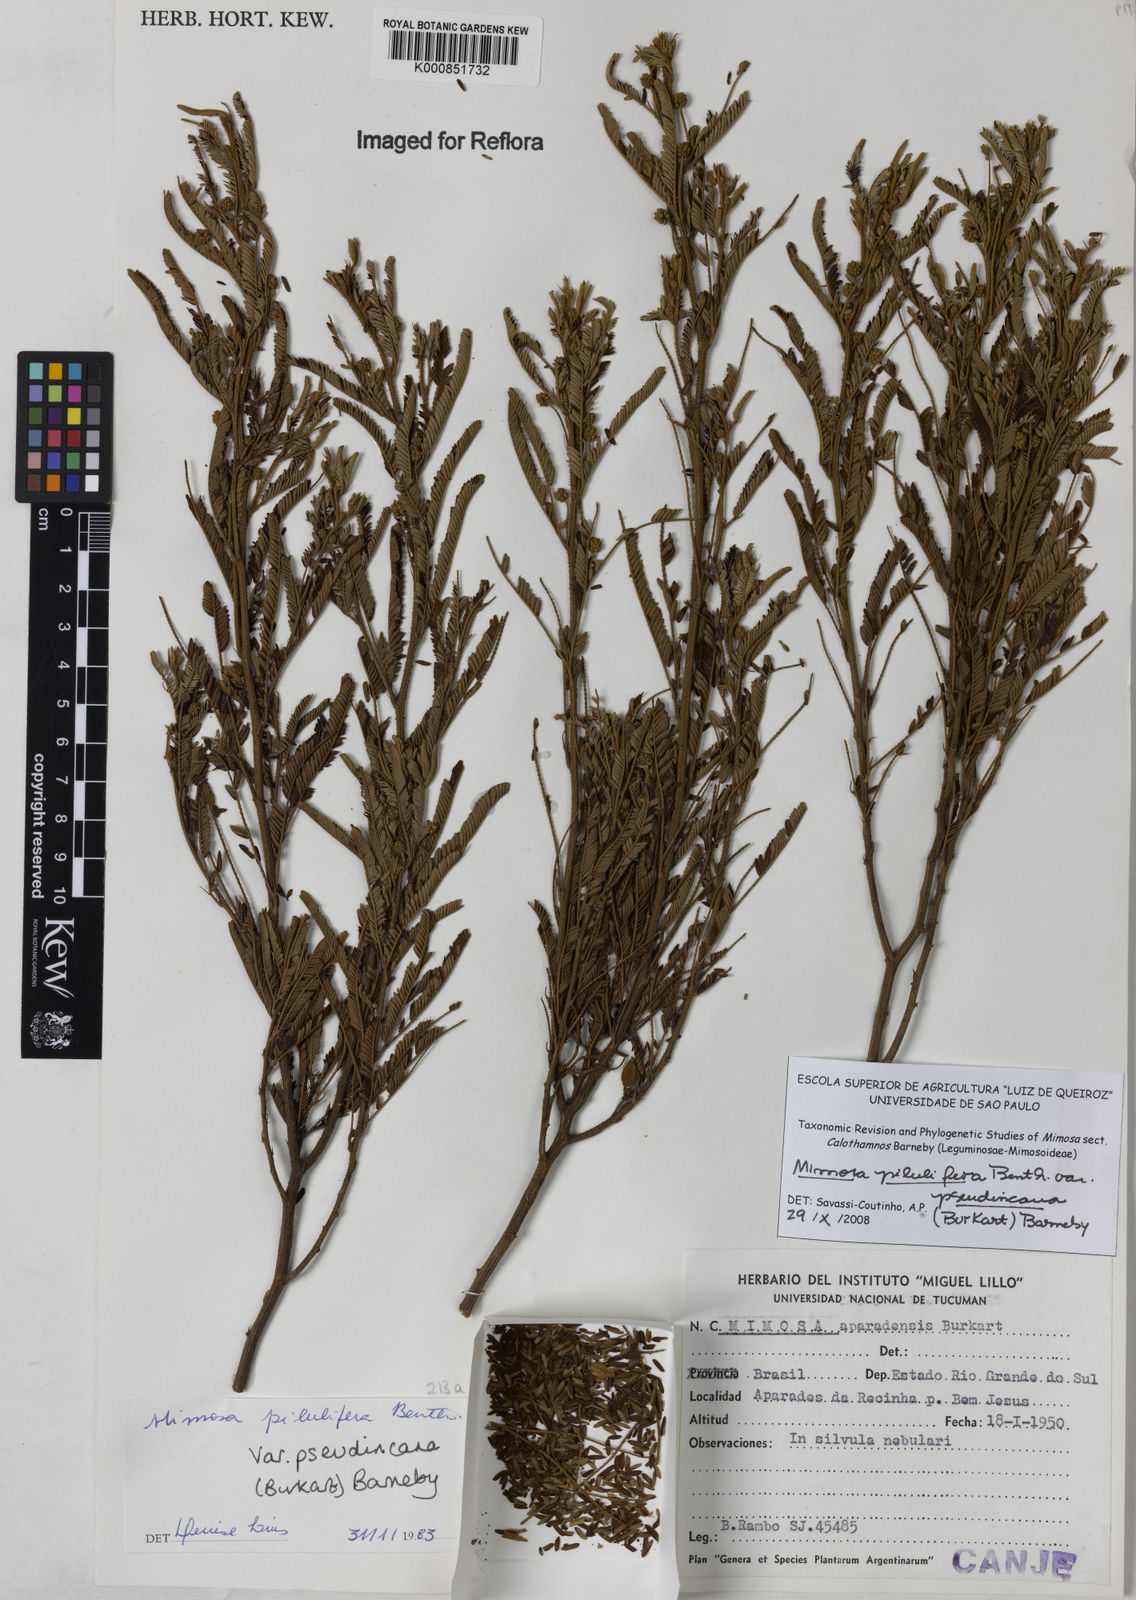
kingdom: Plantae
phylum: Tracheophyta
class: Magnoliopsida
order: Fabales
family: Fabaceae
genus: Mimosa
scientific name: Mimosa pilulifera
